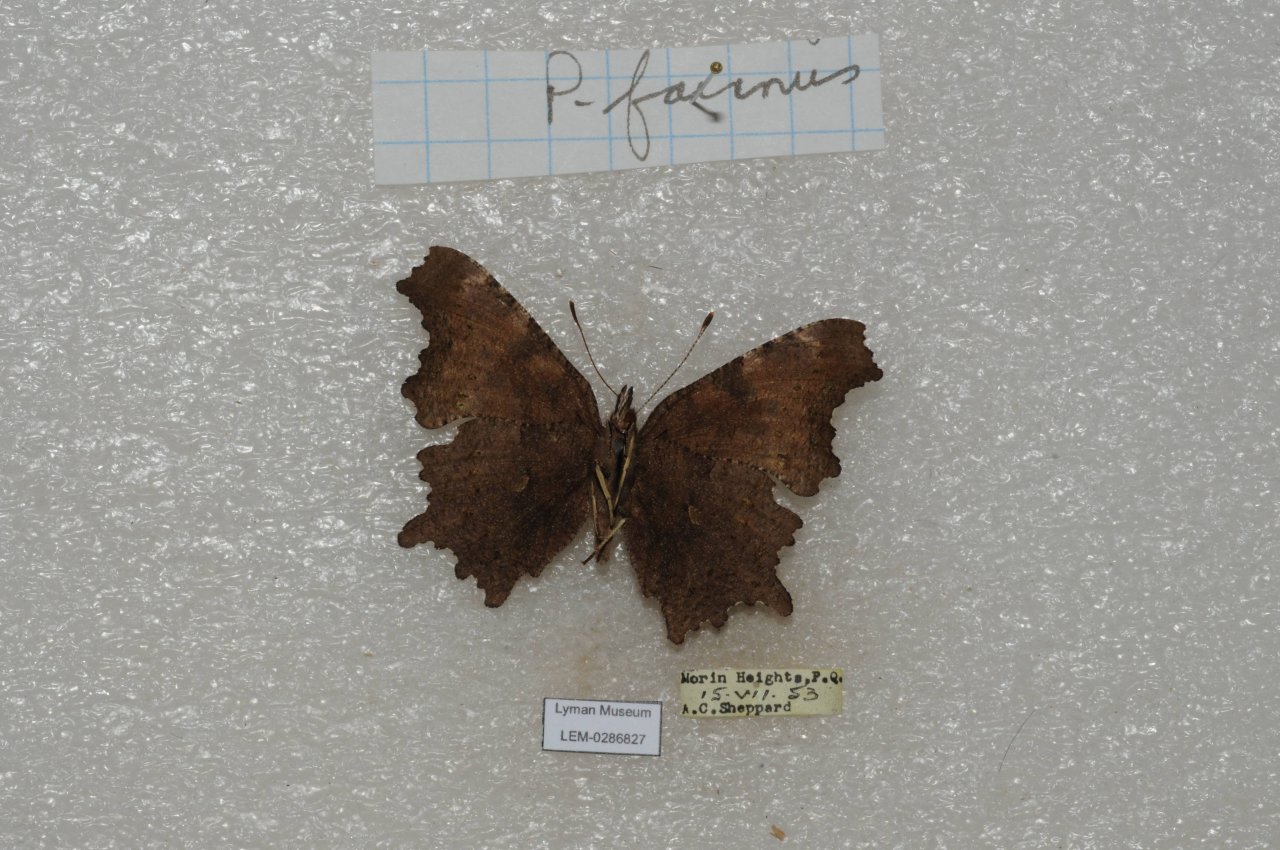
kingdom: Animalia
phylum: Arthropoda
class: Insecta
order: Lepidoptera
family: Nymphalidae
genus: Polygonia
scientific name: Polygonia faunus
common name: Green Comma
